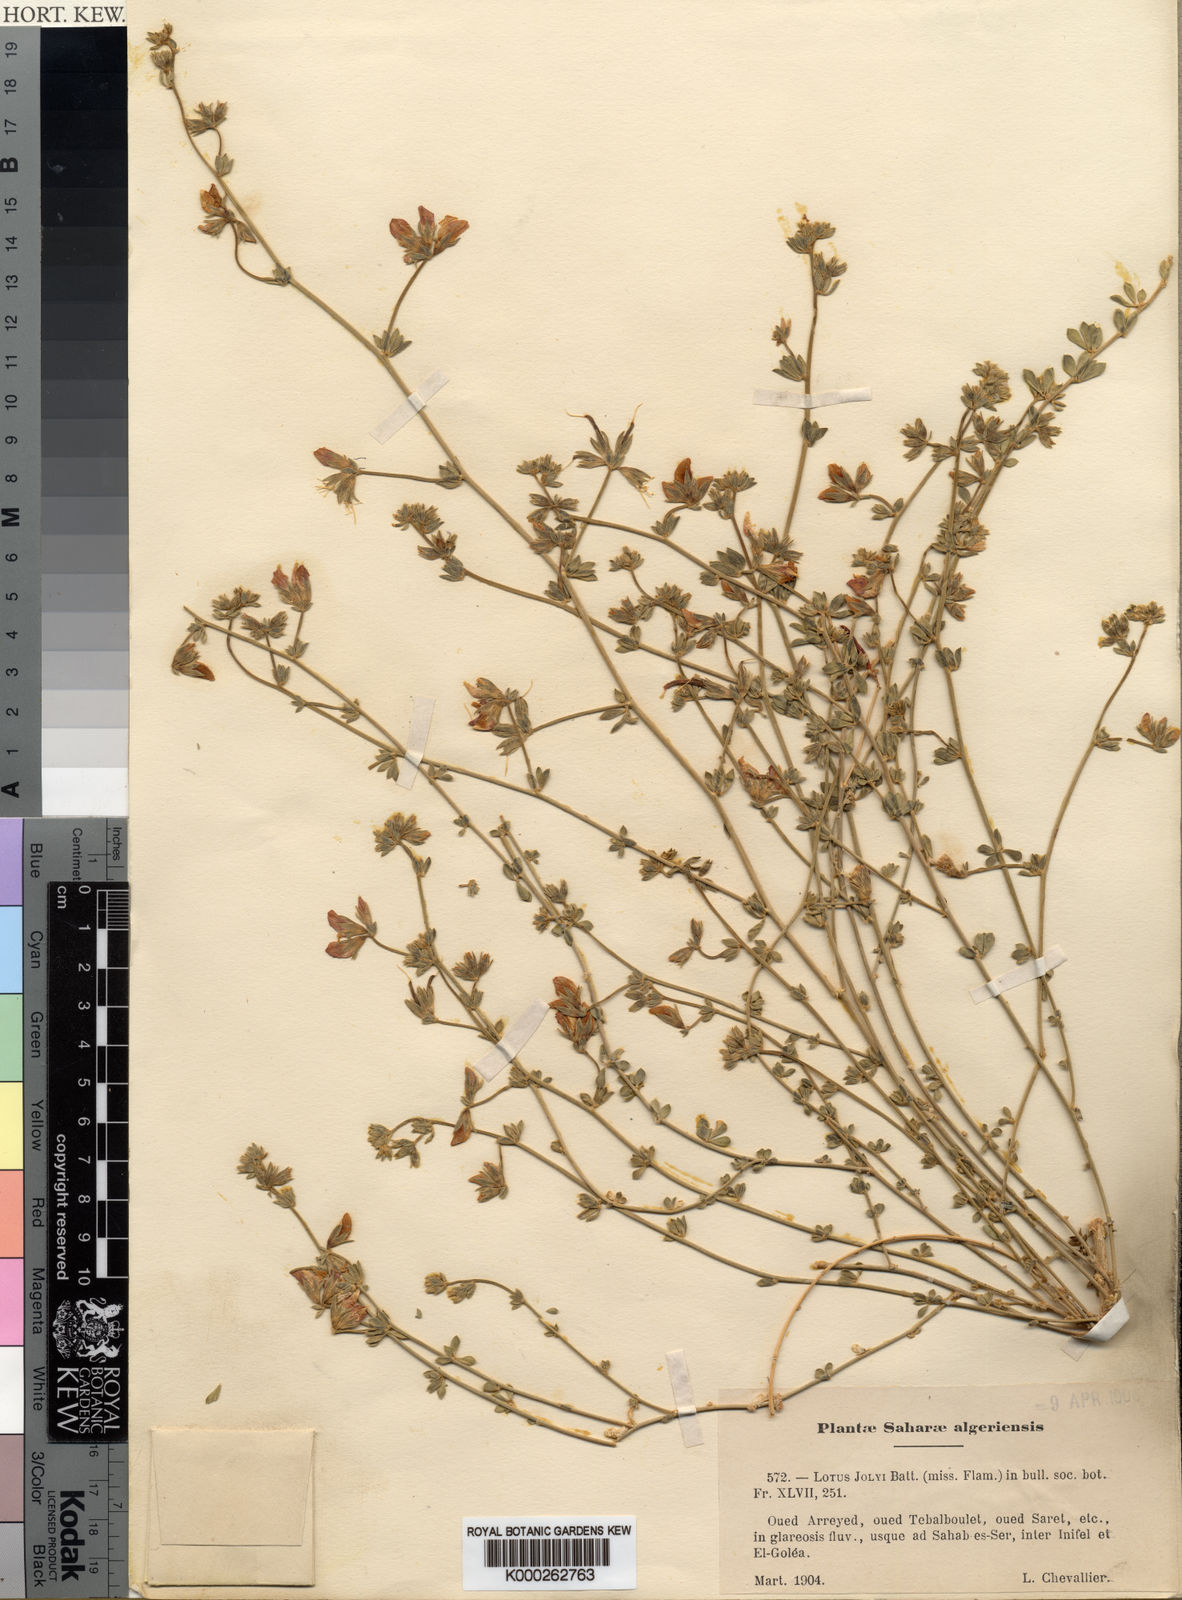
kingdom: Plantae
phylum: Tracheophyta
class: Magnoliopsida
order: Fabales
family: Fabaceae
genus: Lotus
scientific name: Lotus jolyi
